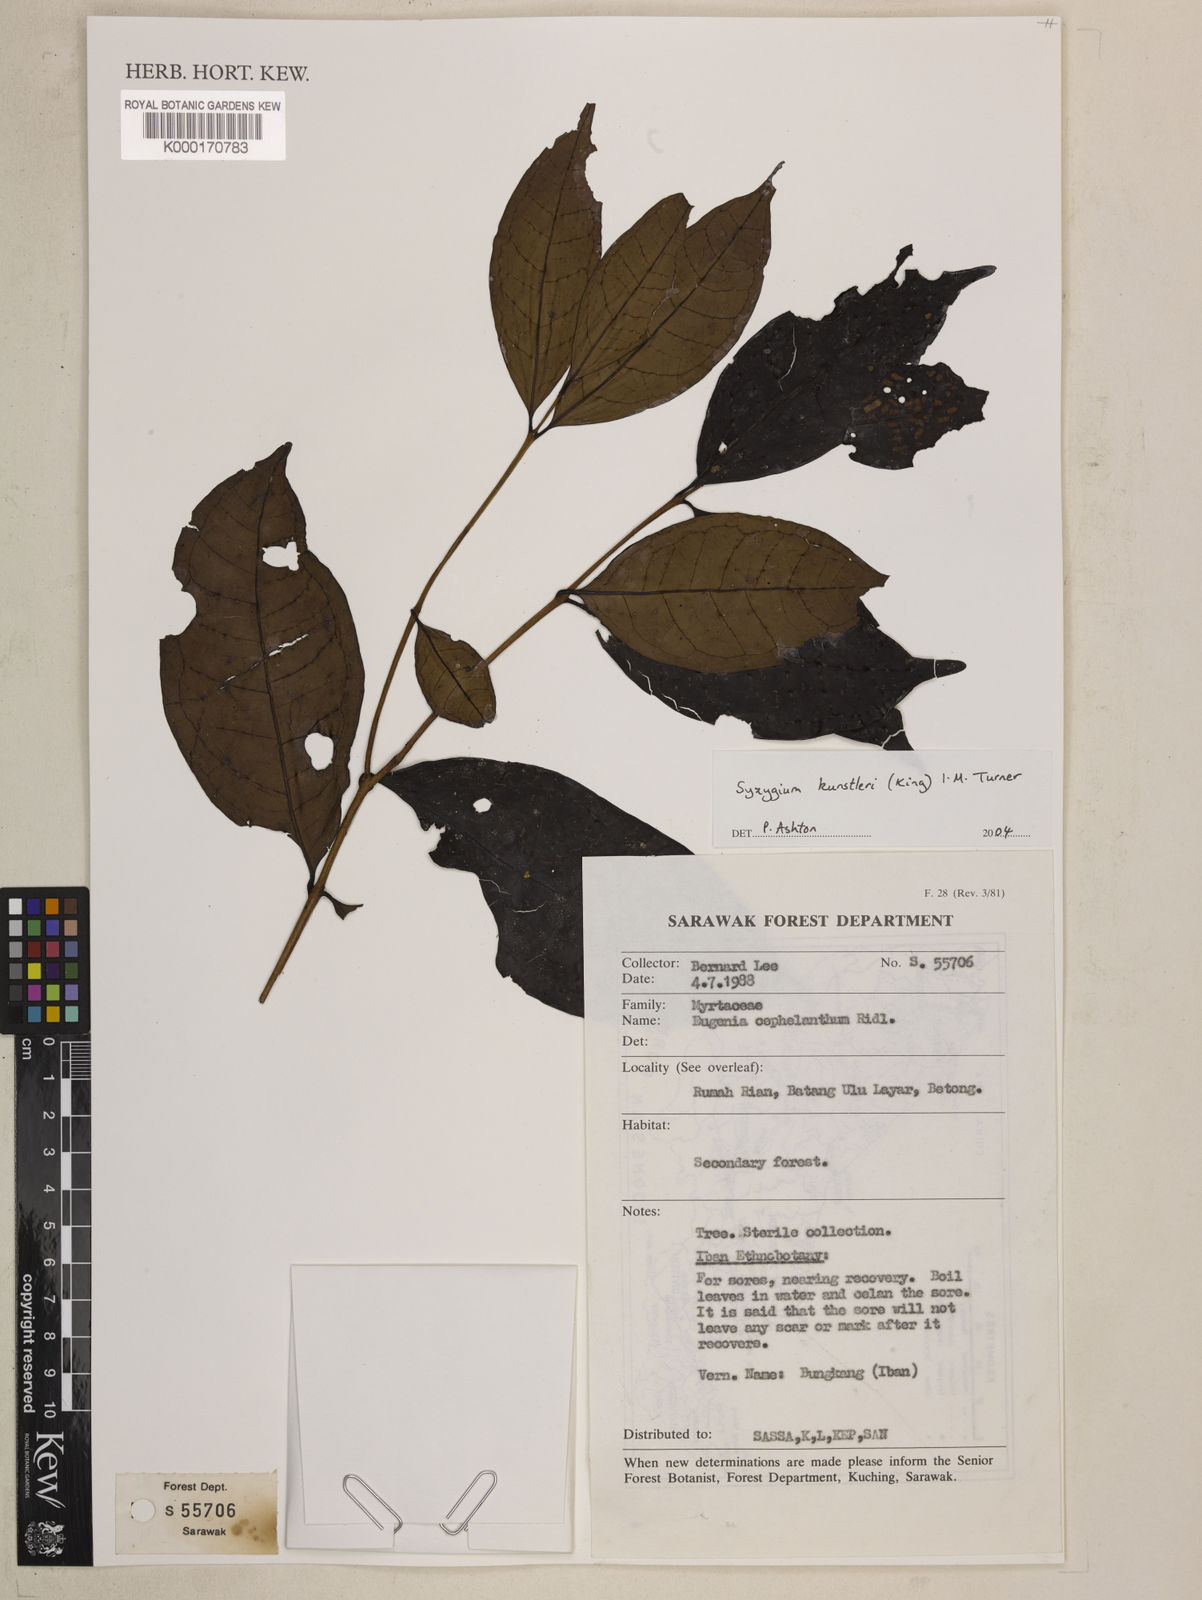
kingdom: Plantae
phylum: Tracheophyta
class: Magnoliopsida
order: Myrtales
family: Myrtaceae
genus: Syzygium
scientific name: Syzygium
